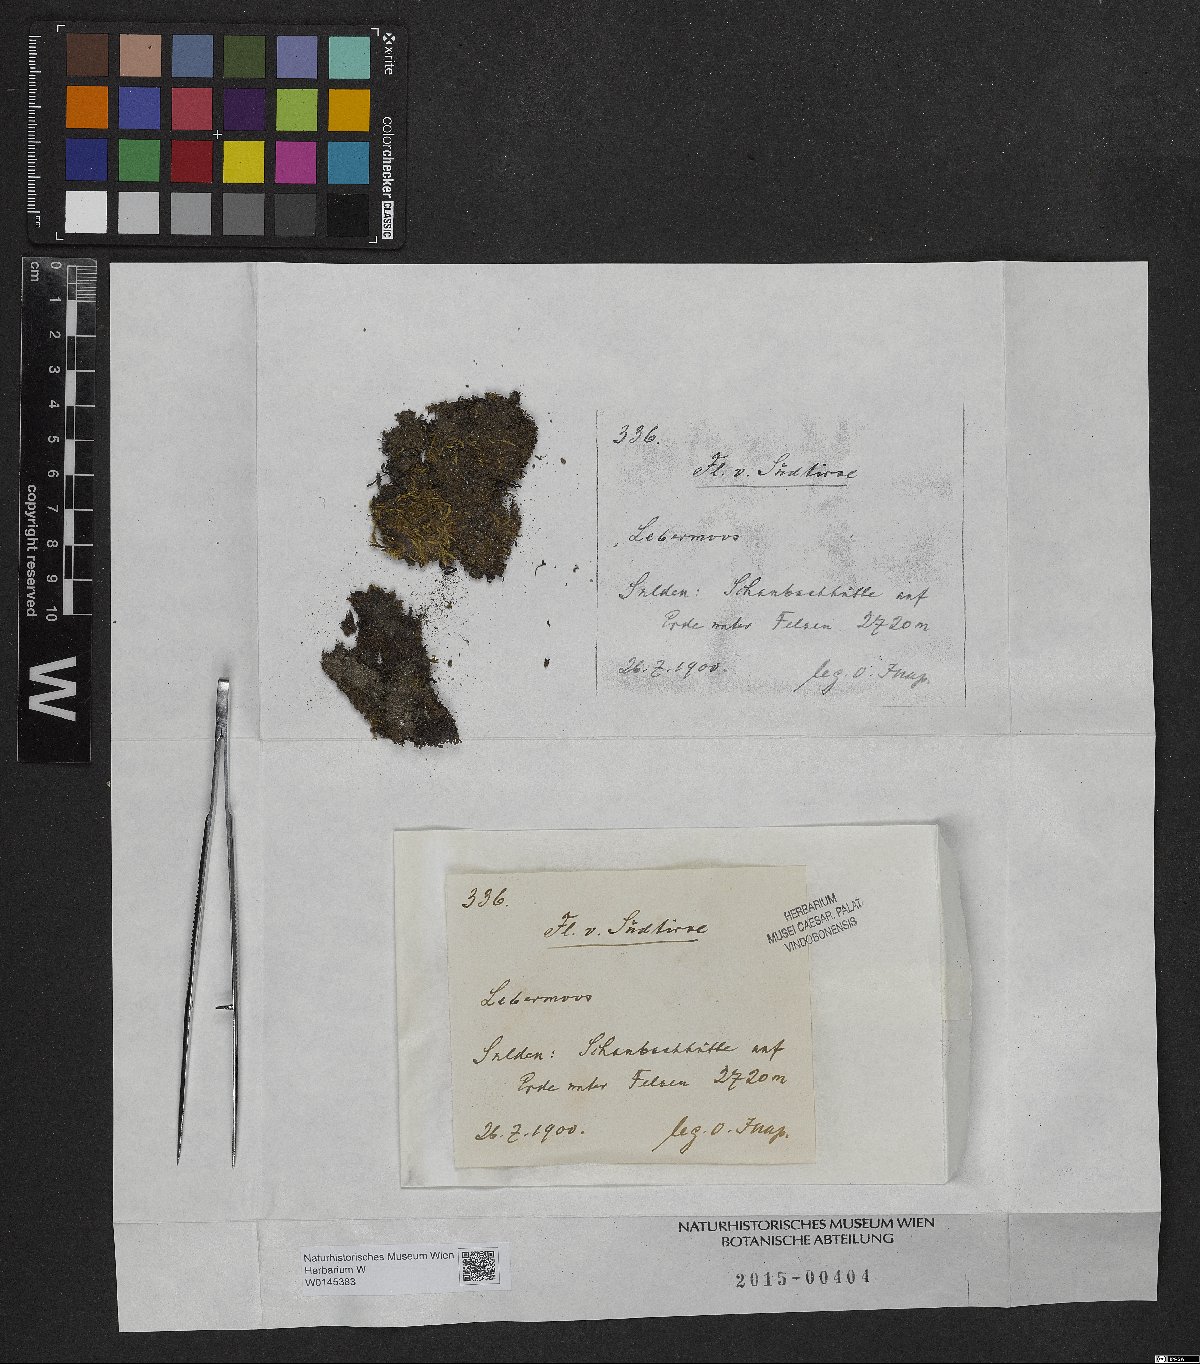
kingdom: Plantae
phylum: Marchantiophyta
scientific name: Marchantiophyta
